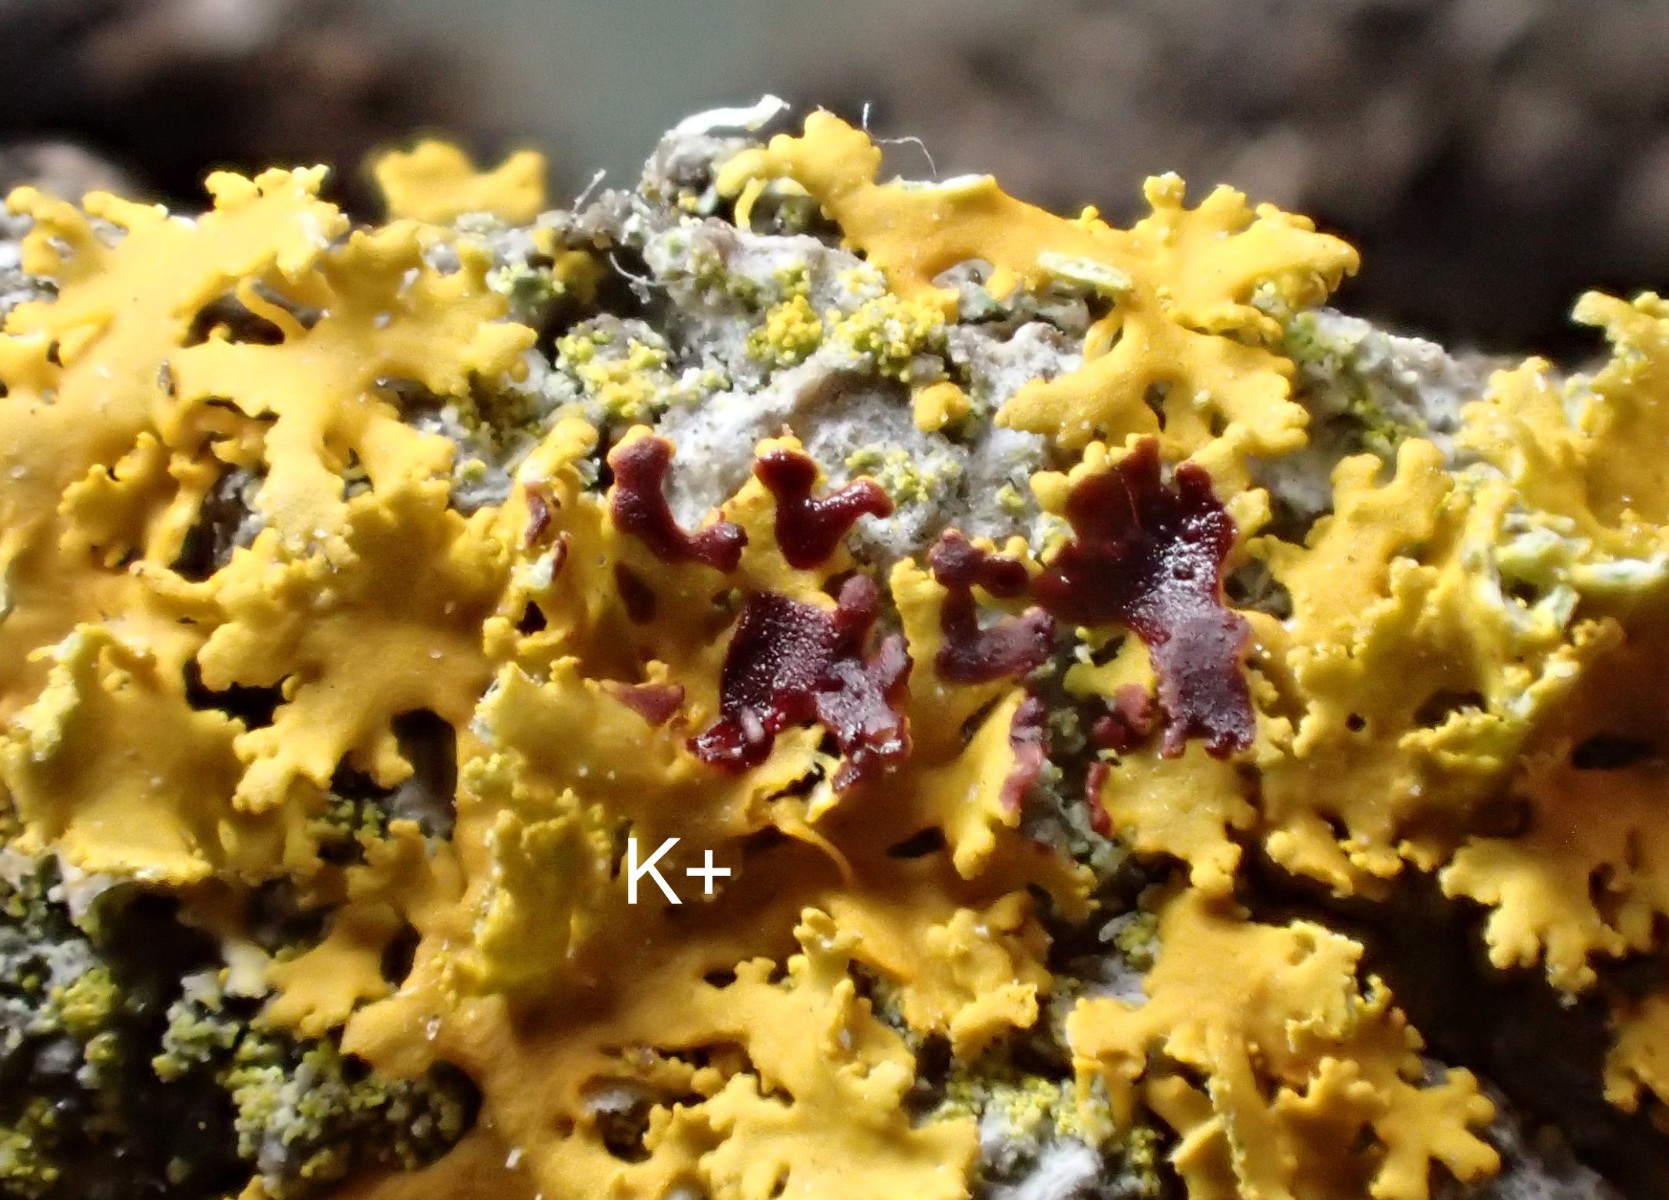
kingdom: Fungi
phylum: Ascomycota
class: Lecanoromycetes
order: Teloschistales
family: Teloschistaceae
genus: Xanthomendoza
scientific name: Xanthomendoza oregana
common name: Poelts væggelav
